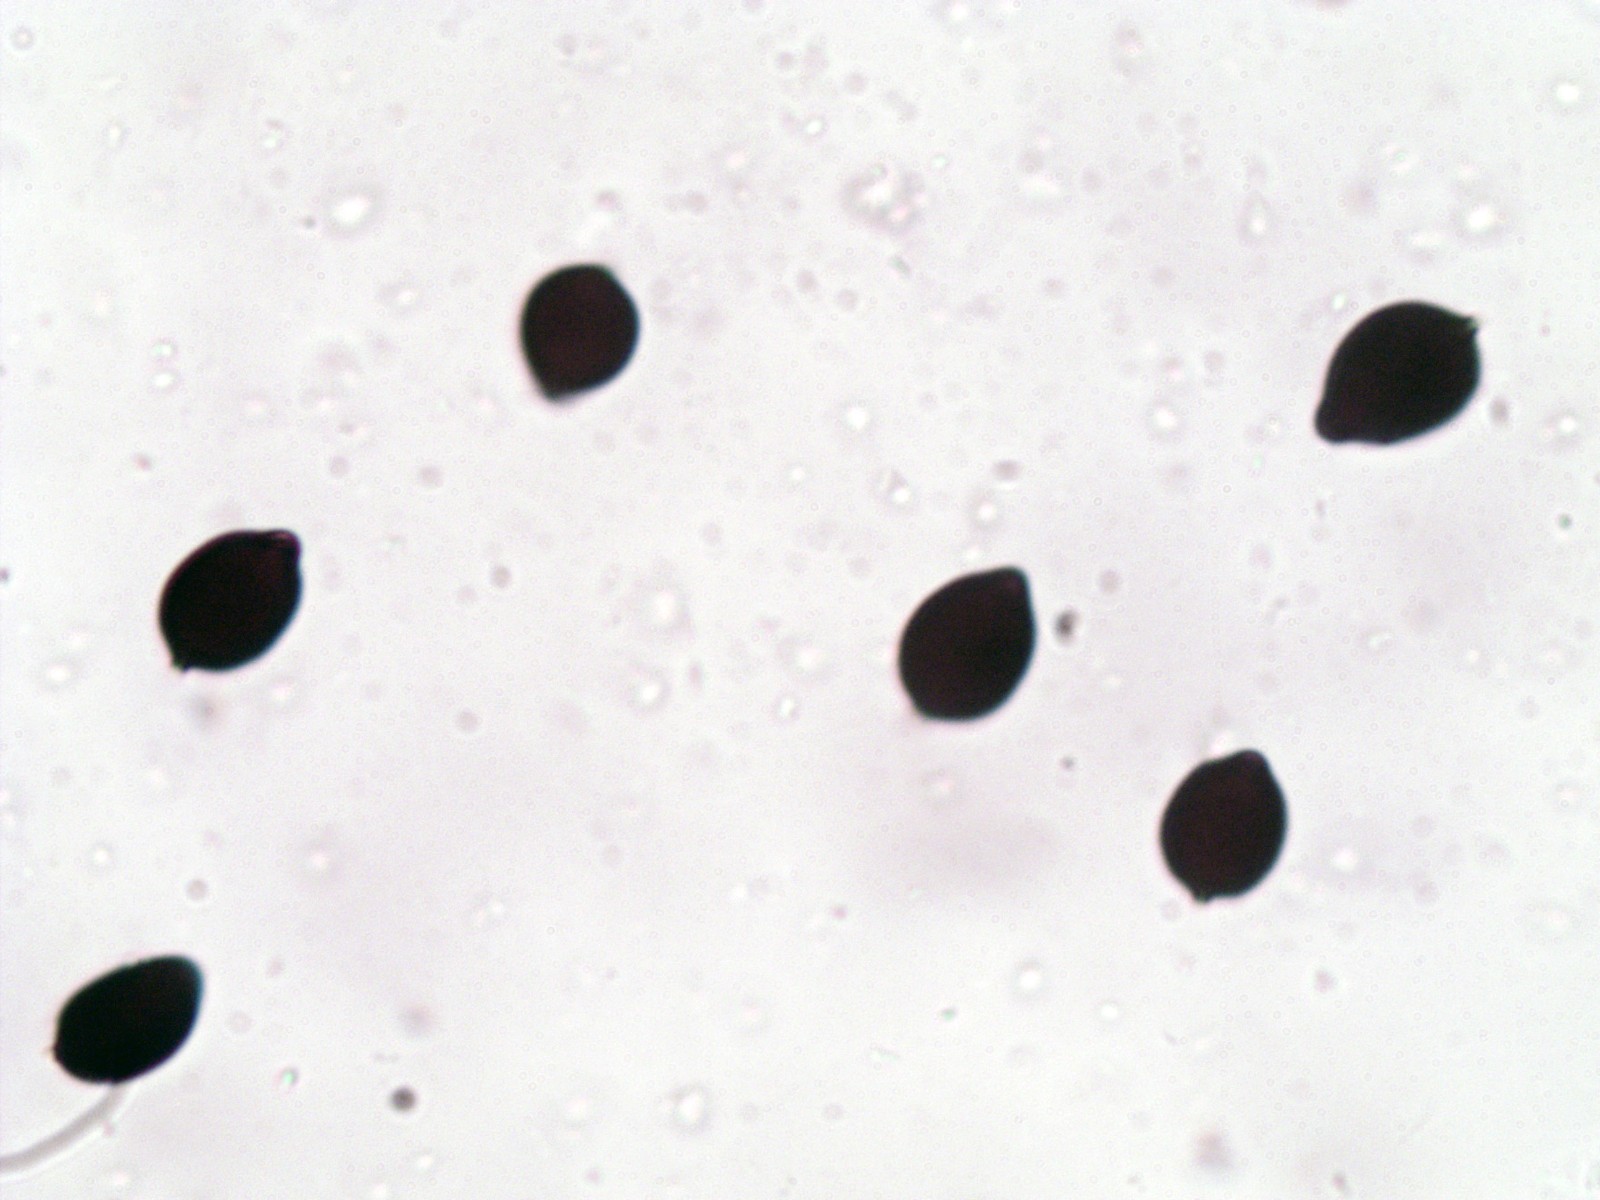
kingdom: Fungi
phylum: Basidiomycota
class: Agaricomycetes
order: Agaricales
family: Psathyrellaceae
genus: Parasola
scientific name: Parasola kuehneri
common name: skygge-hjulhat
